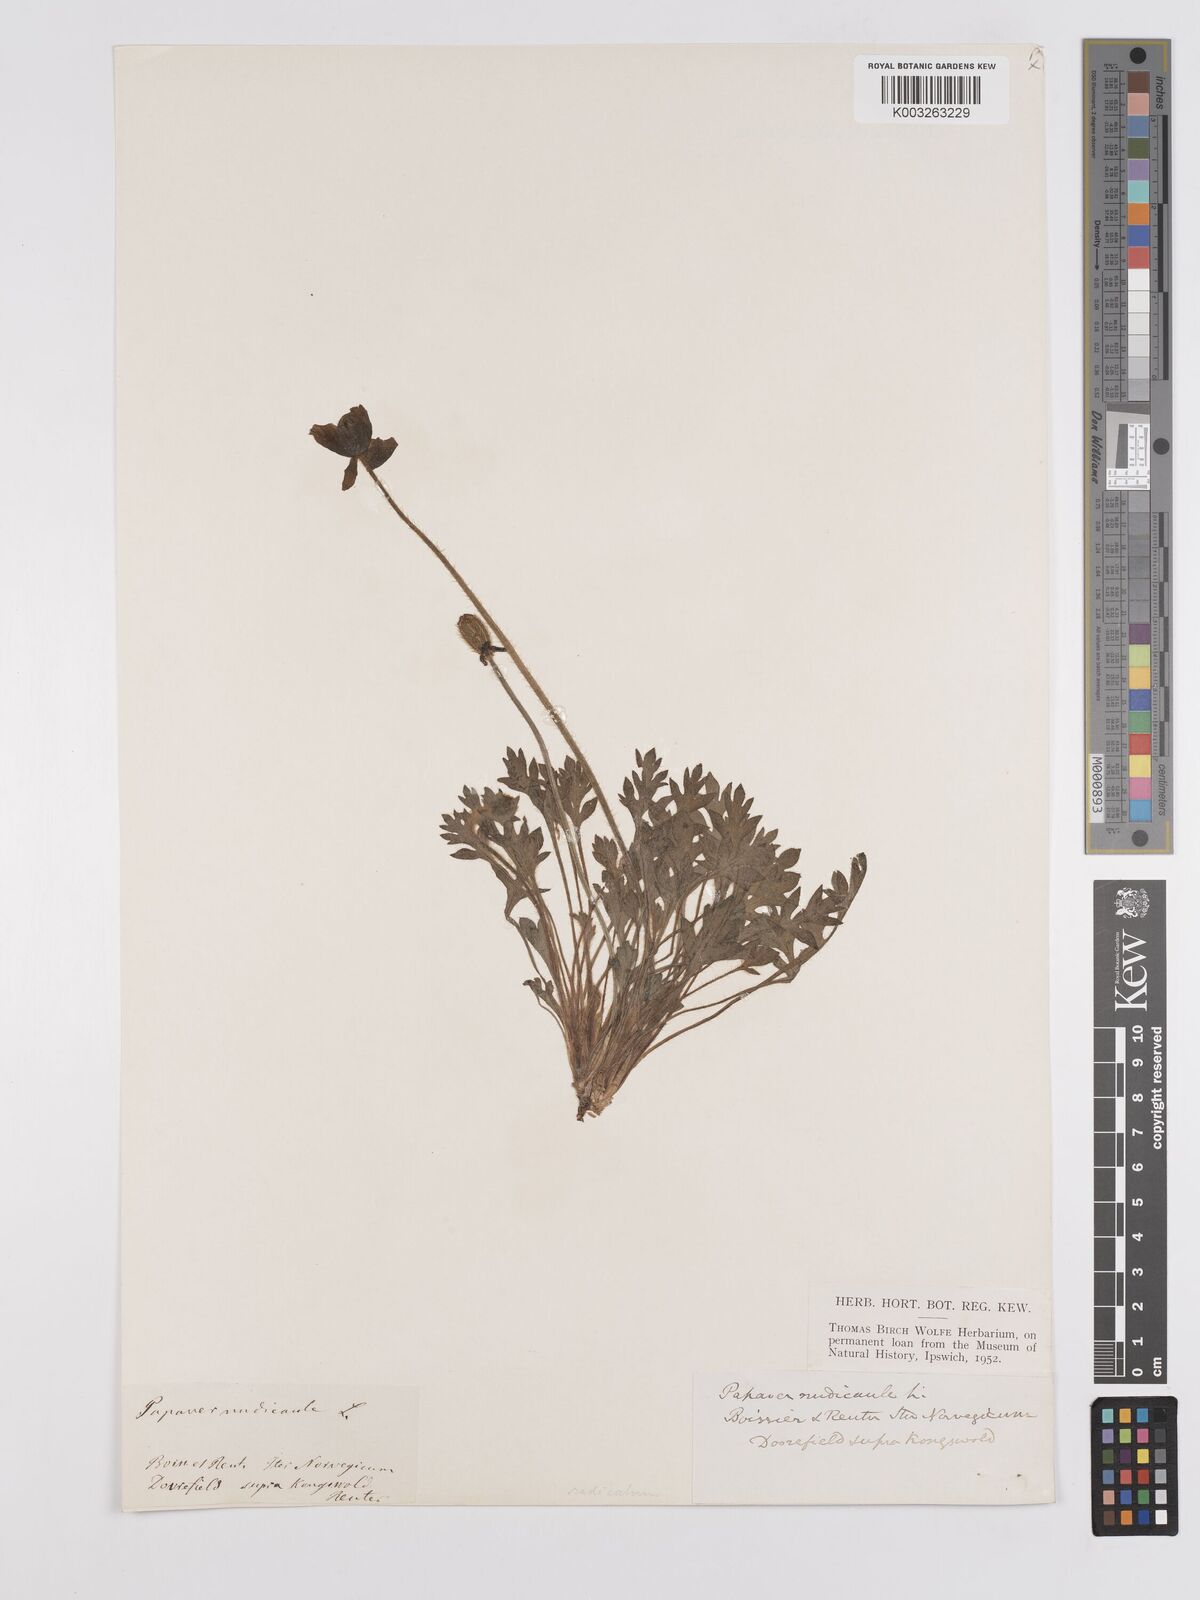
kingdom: Plantae
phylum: Tracheophyta
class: Magnoliopsida
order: Ranunculales
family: Papaveraceae
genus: Papaver
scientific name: Papaver radicatum
